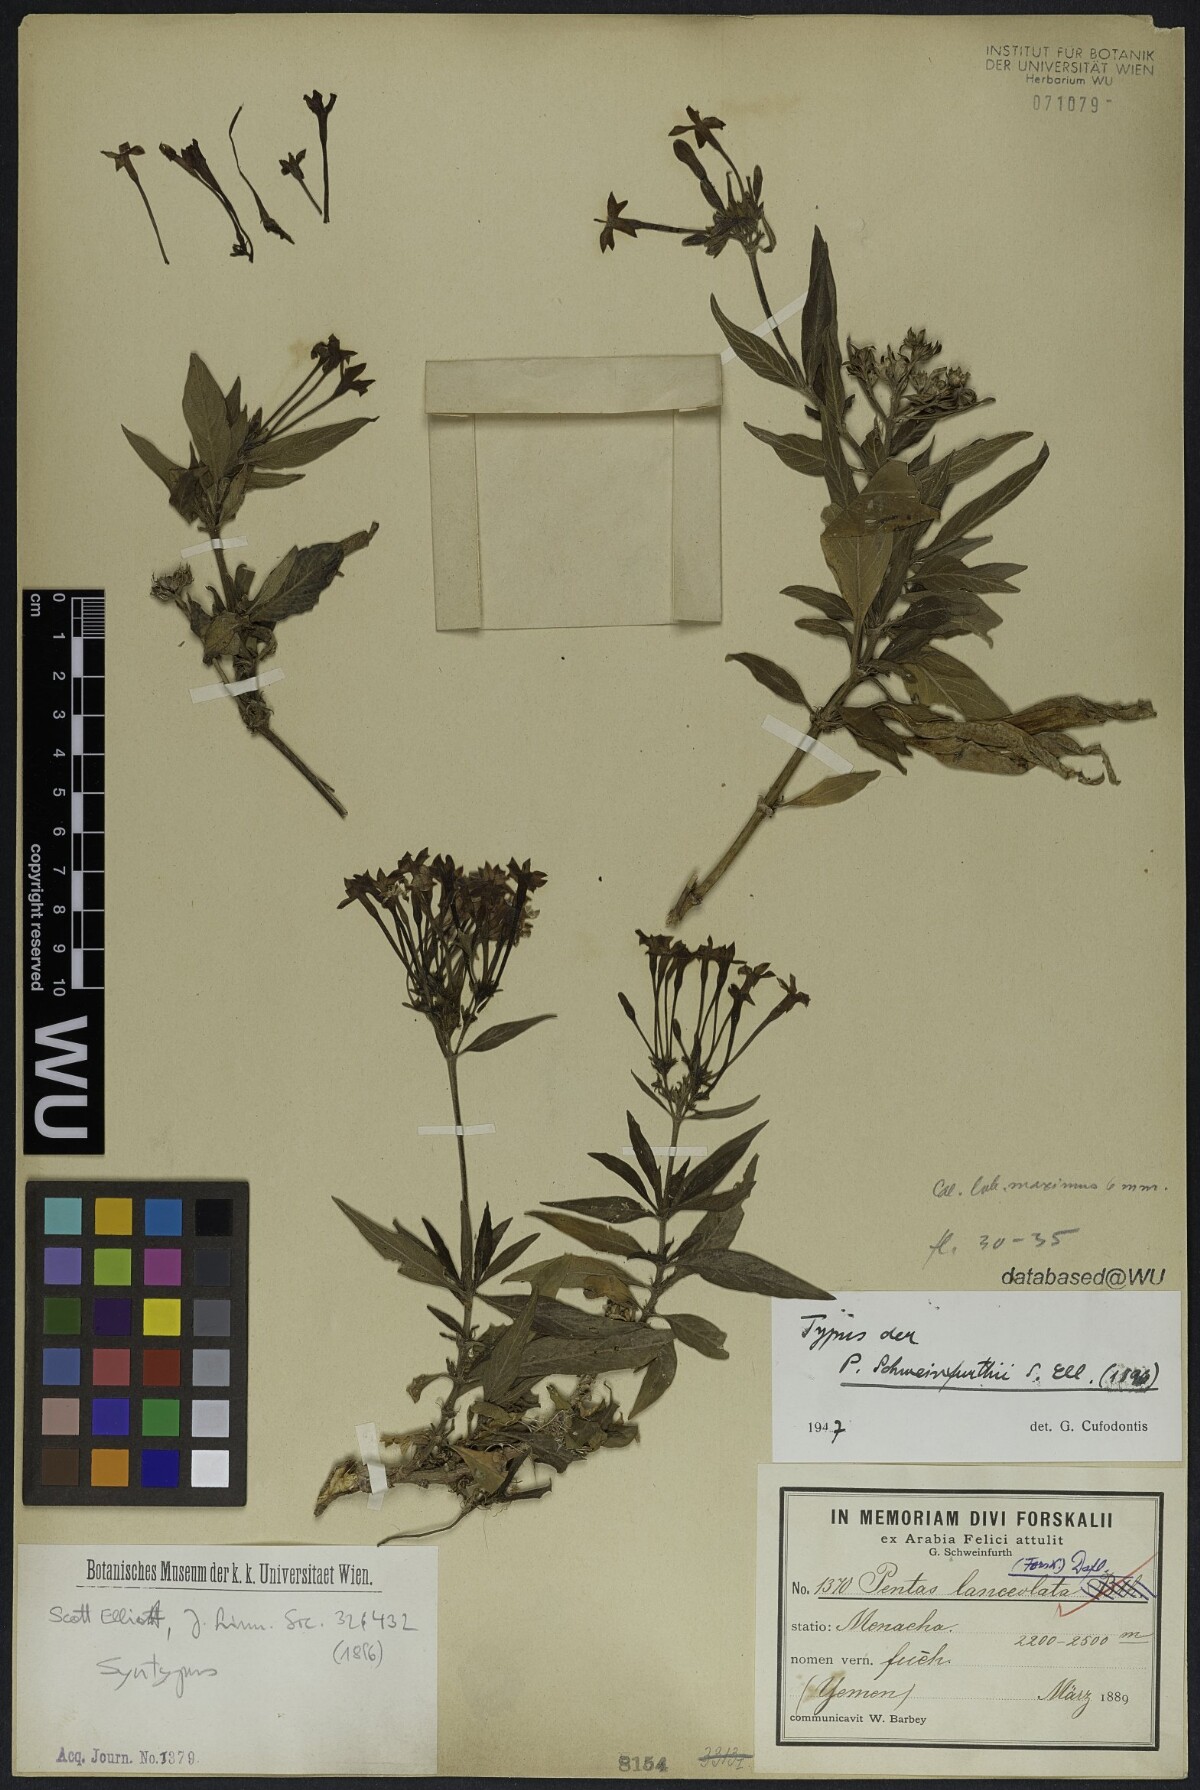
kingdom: Plantae
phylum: Tracheophyta
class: Magnoliopsida
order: Gentianales
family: Rubiaceae
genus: Pentas
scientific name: Pentas lanceolata
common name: Egyptian starcluster
